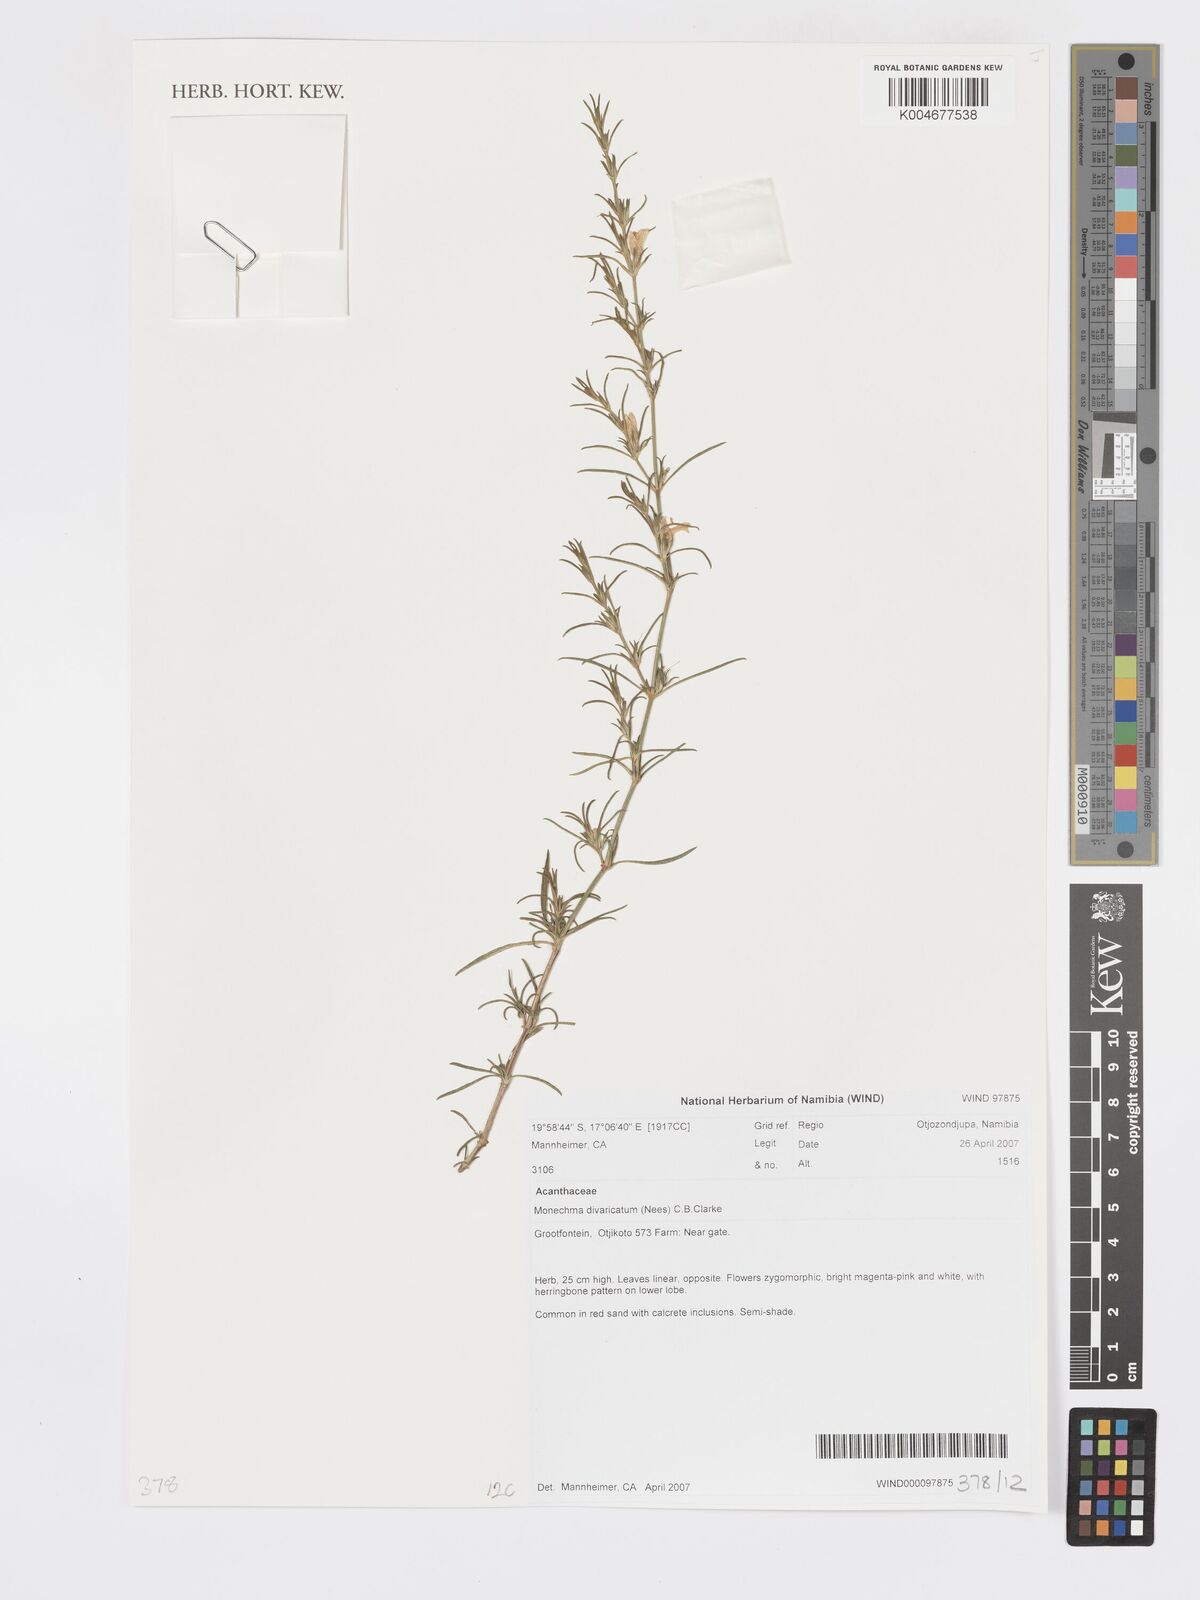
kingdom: Plantae
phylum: Tracheophyta
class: Magnoliopsida
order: Lamiales
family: Acanthaceae
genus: Pogonospermum
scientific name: Pogonospermum
